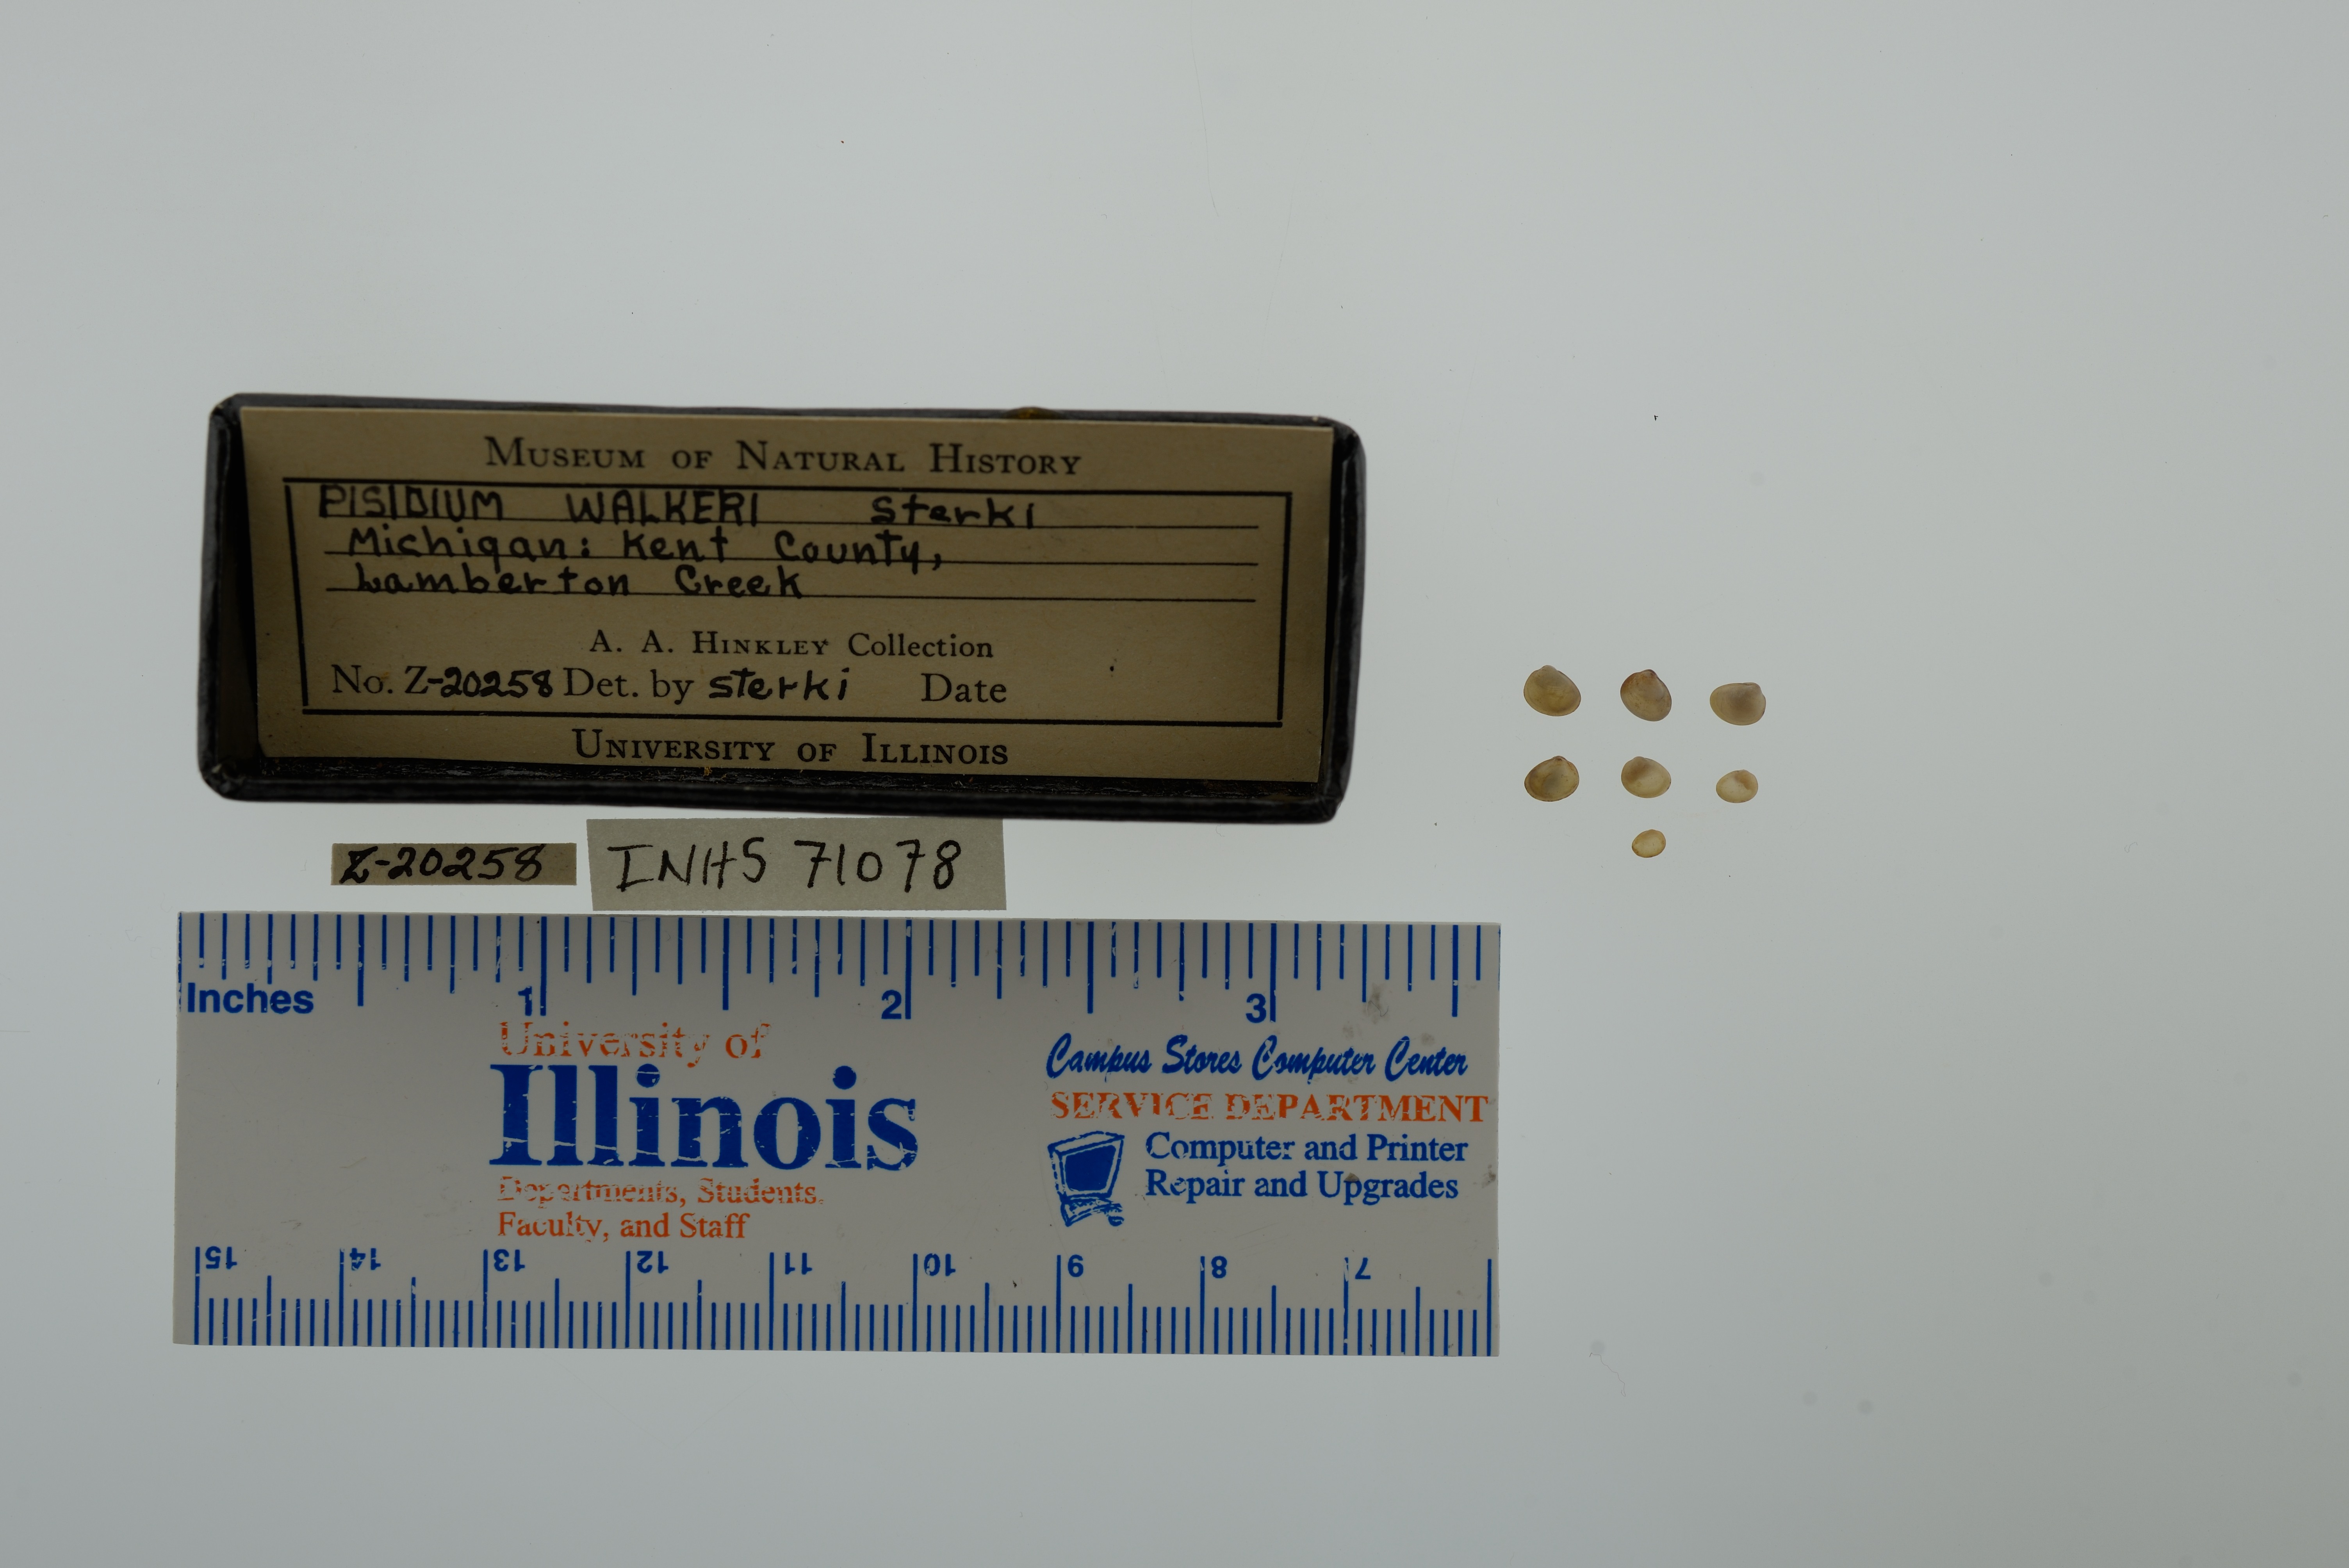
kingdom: Animalia
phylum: Mollusca
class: Bivalvia
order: Sphaeriida
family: Sphaeriidae
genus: Euglesa
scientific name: Euglesa walkeri
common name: Walker peaclam
